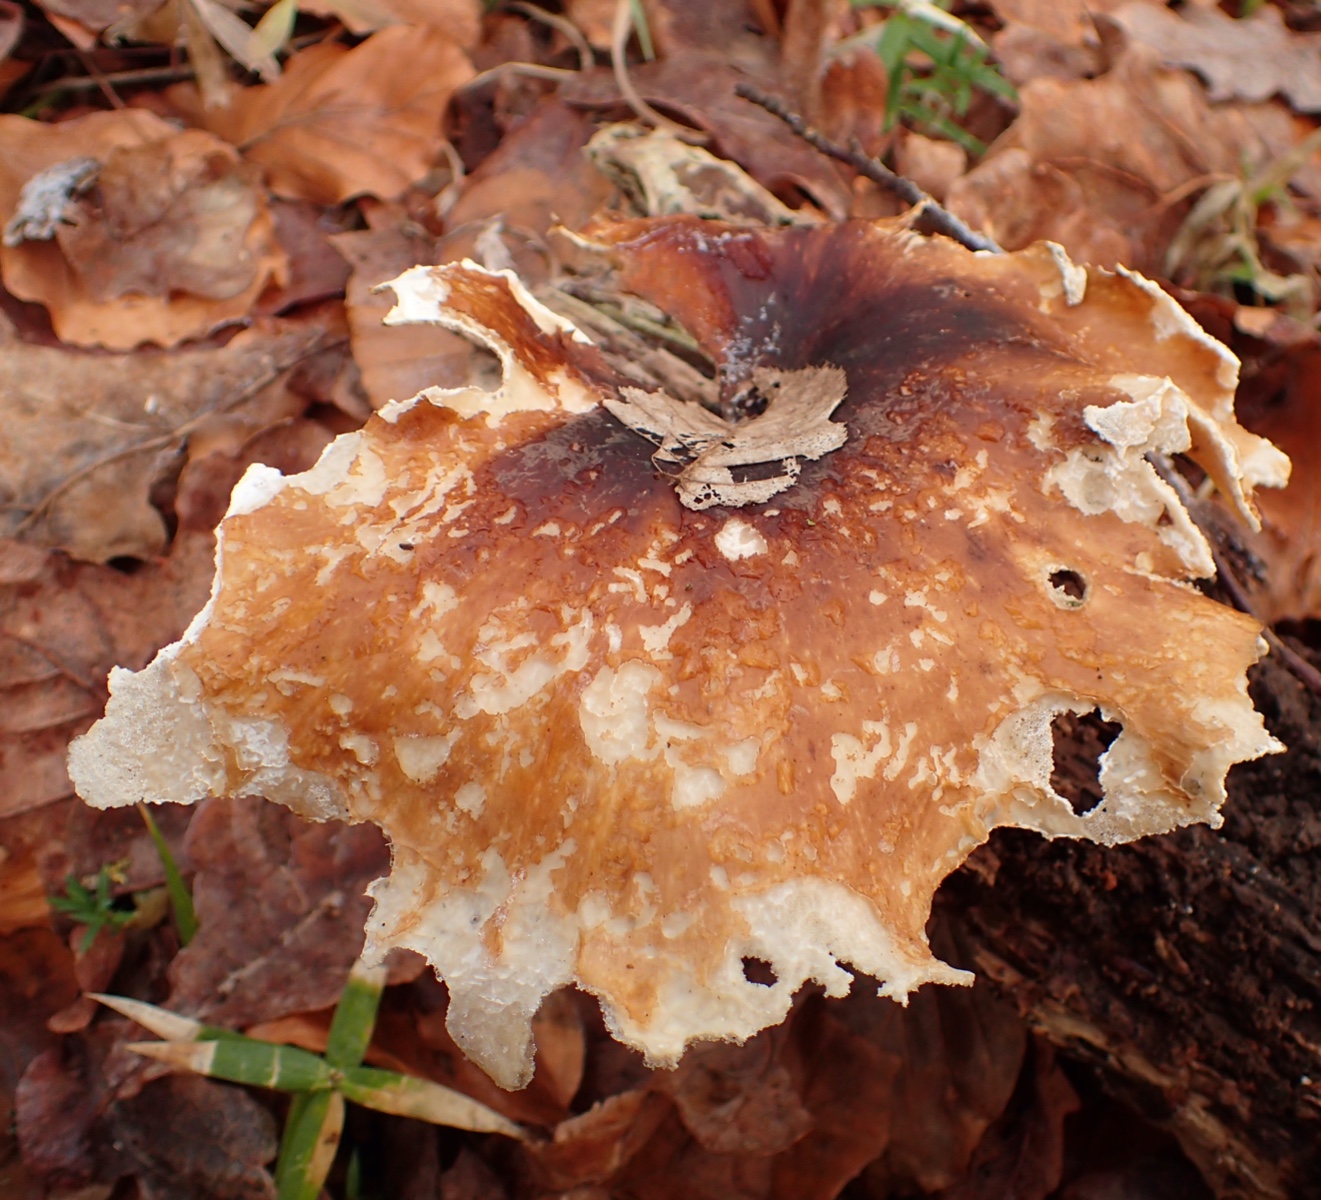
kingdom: Fungi
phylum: Basidiomycota
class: Agaricomycetes
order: Polyporales
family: Polyporaceae
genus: Picipes
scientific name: Picipes badius
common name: kastaniebrun stilkporesvamp
